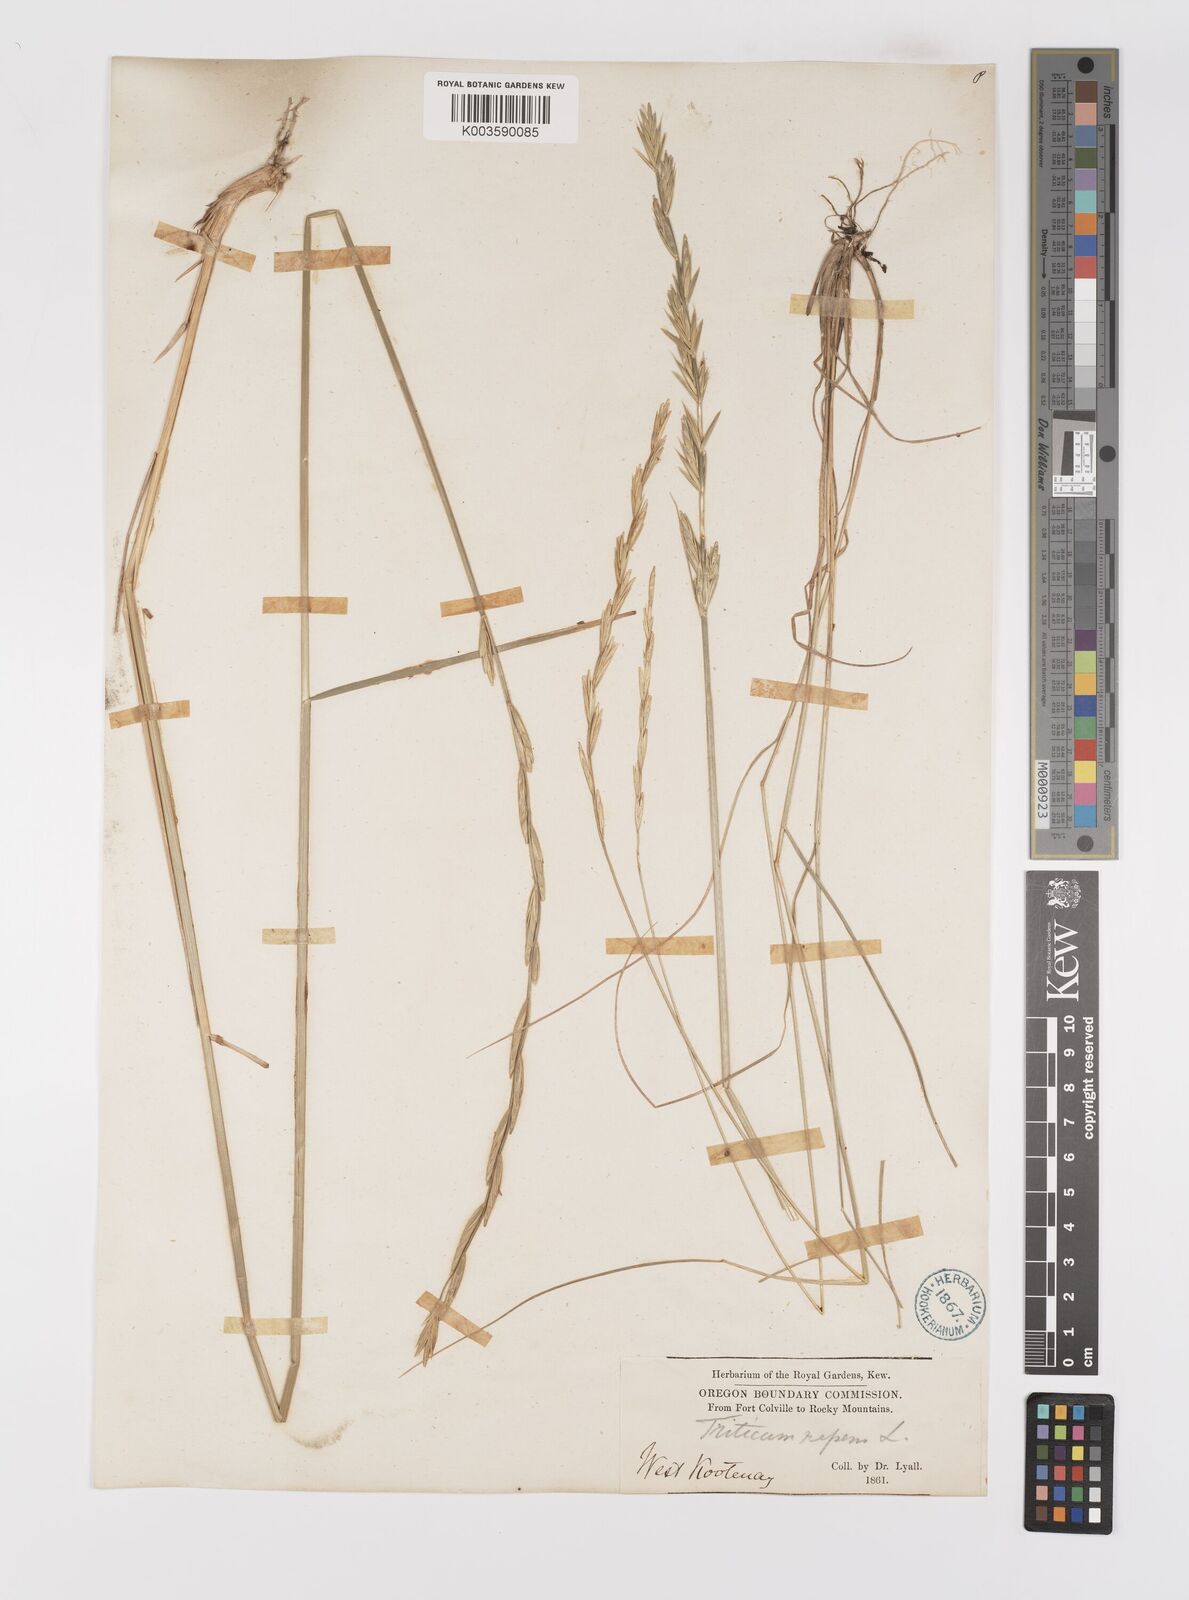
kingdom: Plantae
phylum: Tracheophyta
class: Liliopsida
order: Poales
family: Poaceae
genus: Elymus
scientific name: Elymus repens
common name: Quackgrass
